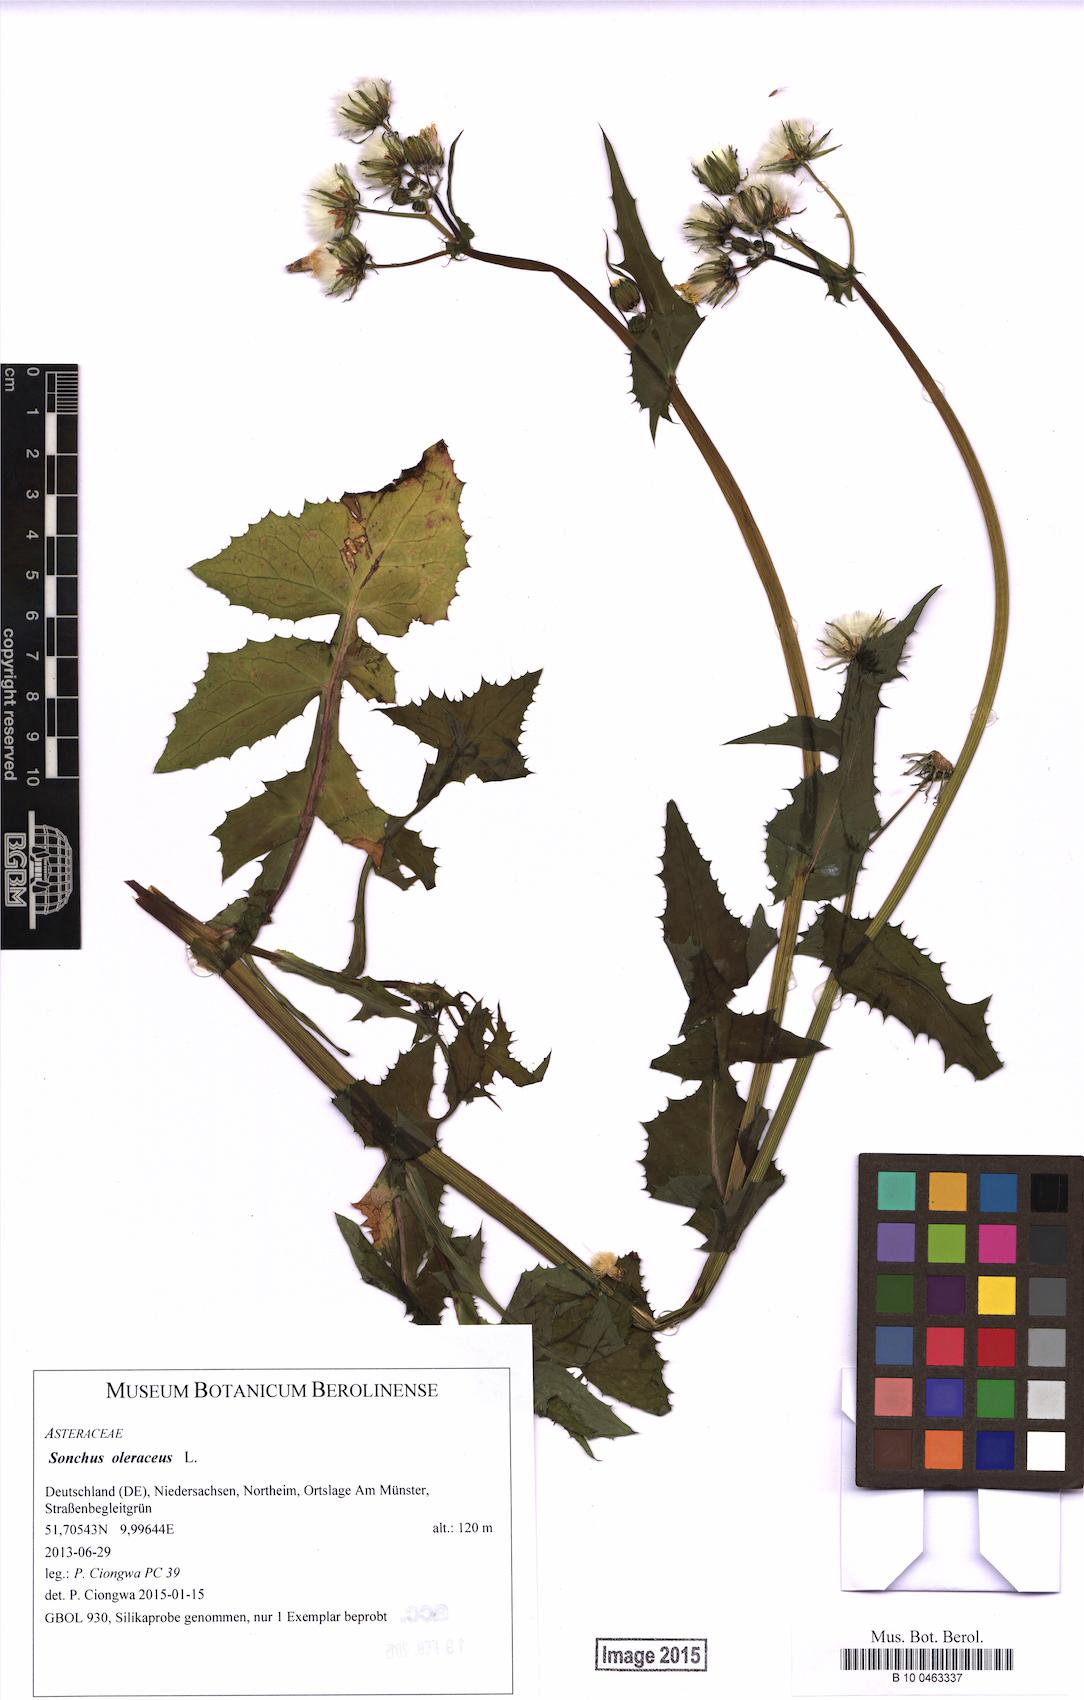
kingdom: Plantae
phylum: Tracheophyta
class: Magnoliopsida
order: Asterales
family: Asteraceae
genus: Sonchus
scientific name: Sonchus oleraceus
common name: Common sowthistle
